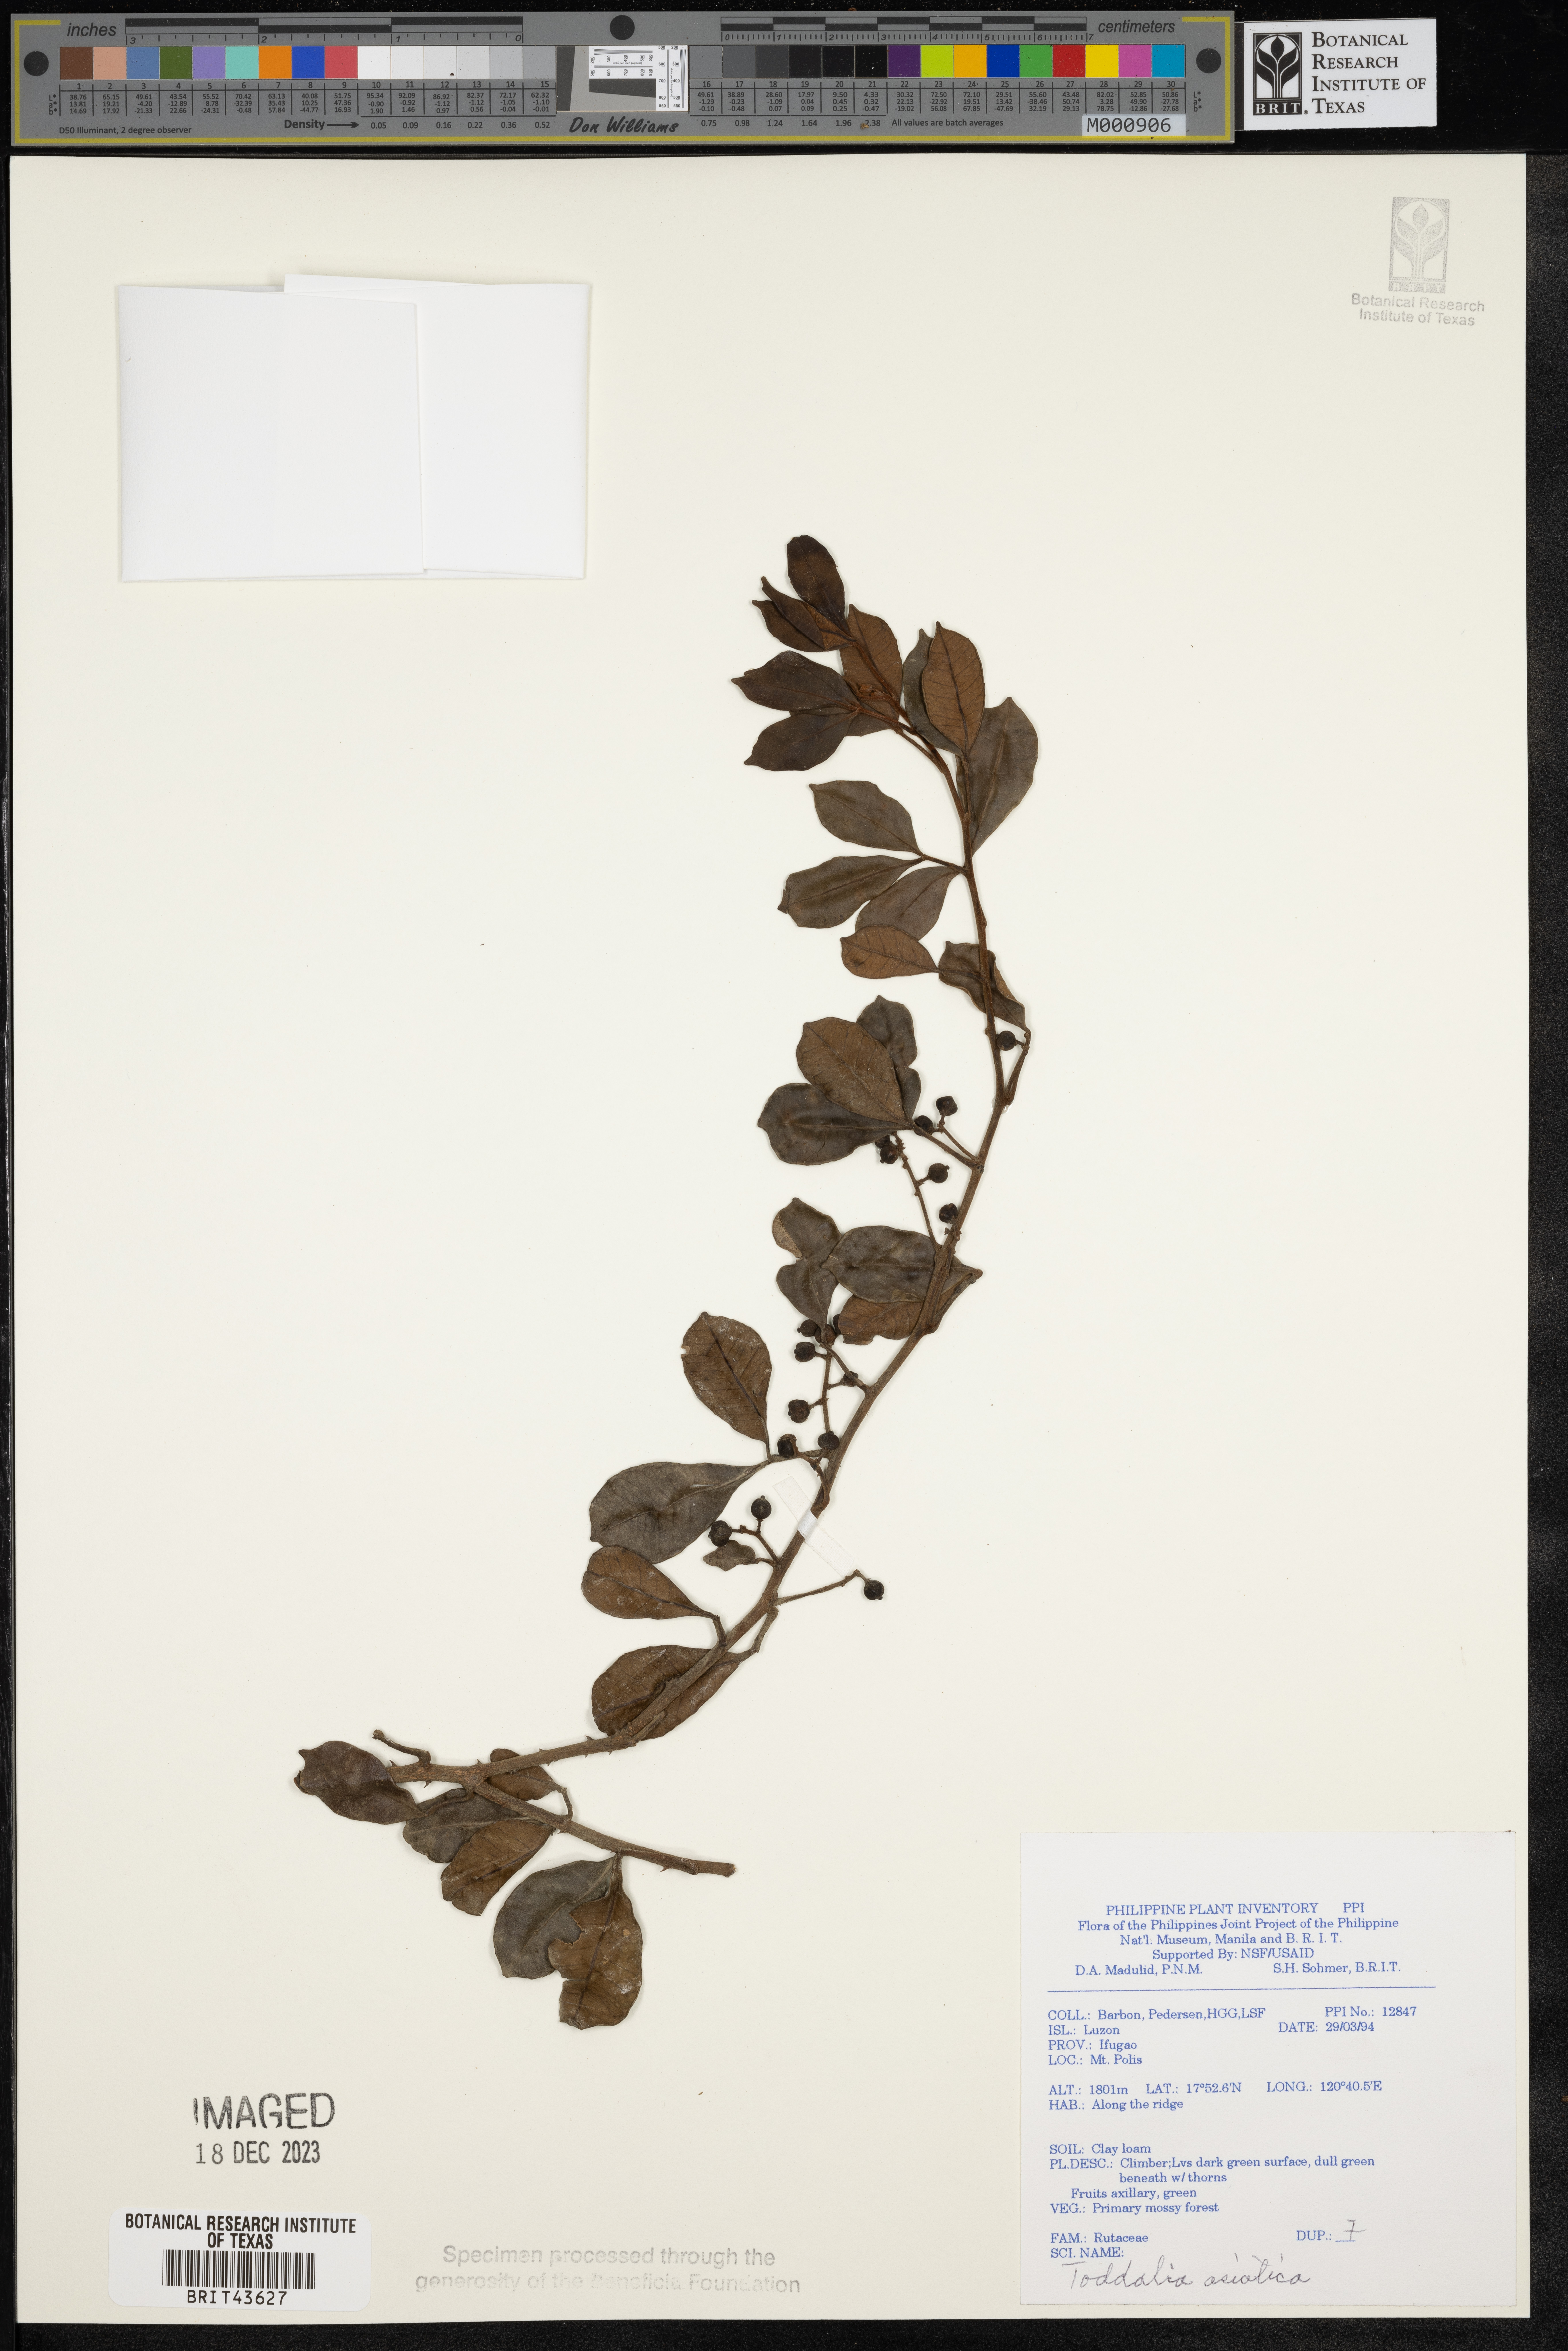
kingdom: Plantae
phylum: Tracheophyta
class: Magnoliopsida
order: Sapindales
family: Rutaceae
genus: Zanthoxylum
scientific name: Zanthoxylum asiaticum
